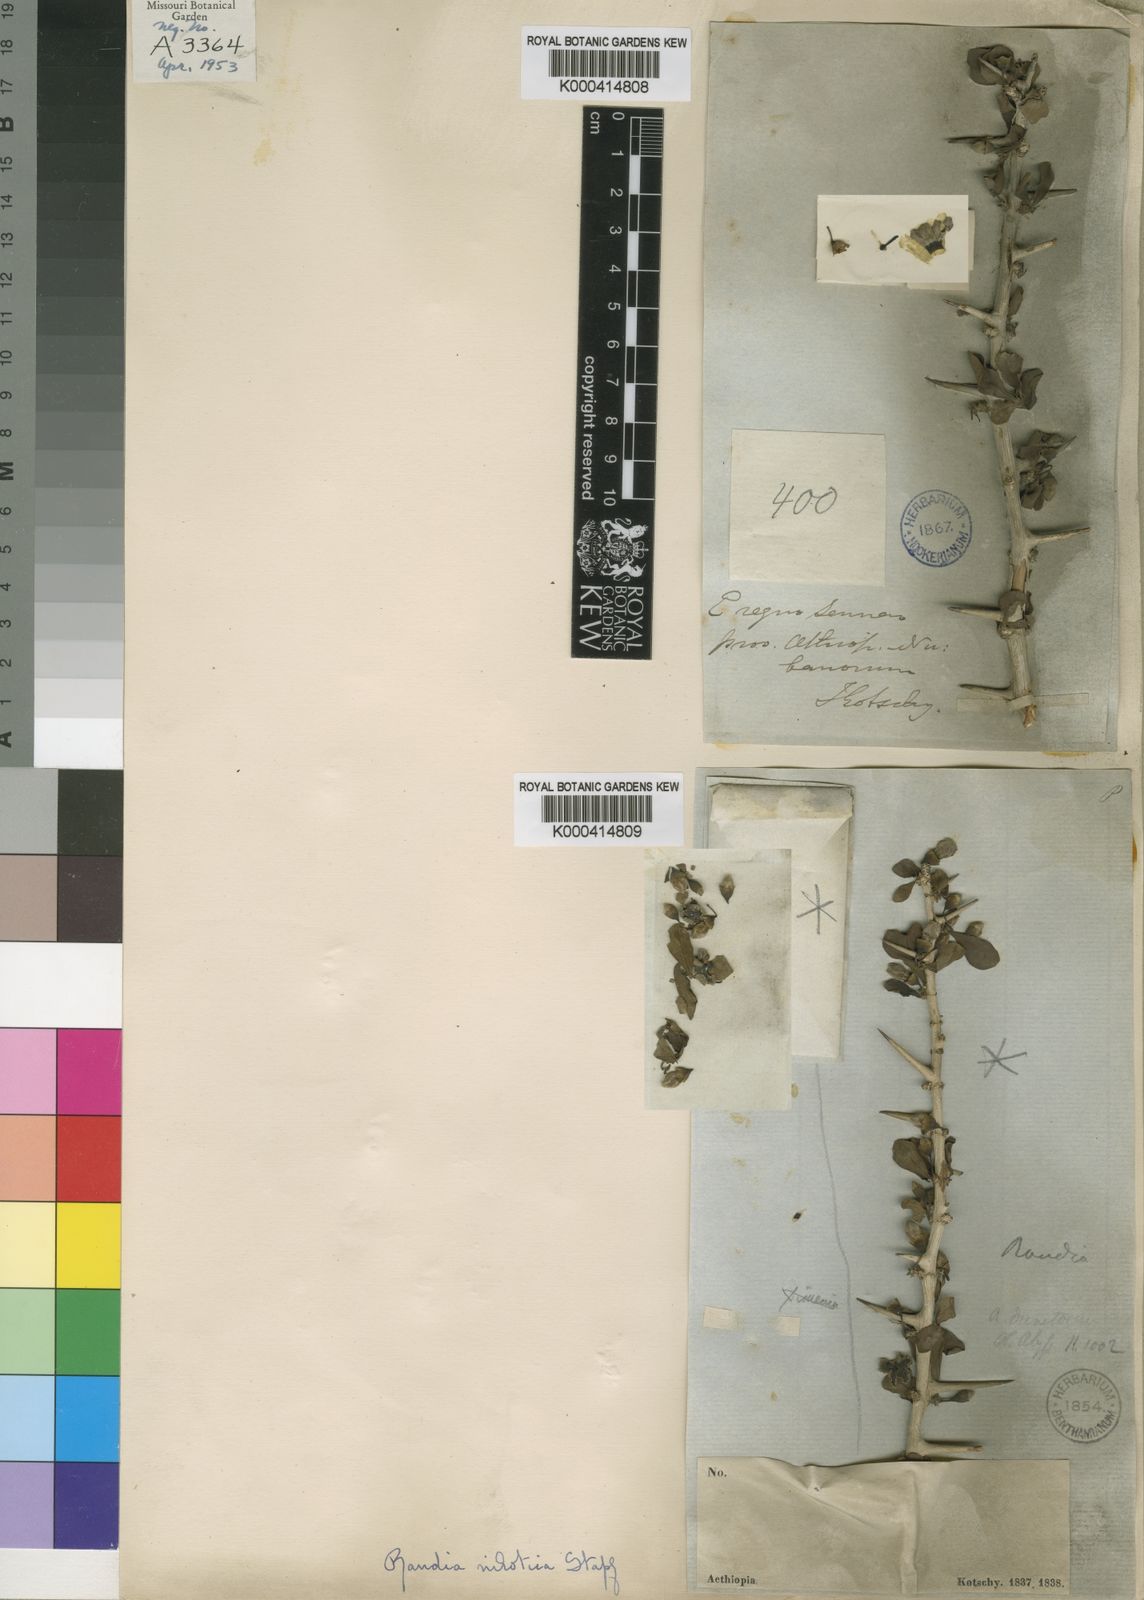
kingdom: Plantae
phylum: Tracheophyta
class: Magnoliopsida
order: Gentianales
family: Rubiaceae
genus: Catunaregam
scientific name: Catunaregam nilotica
